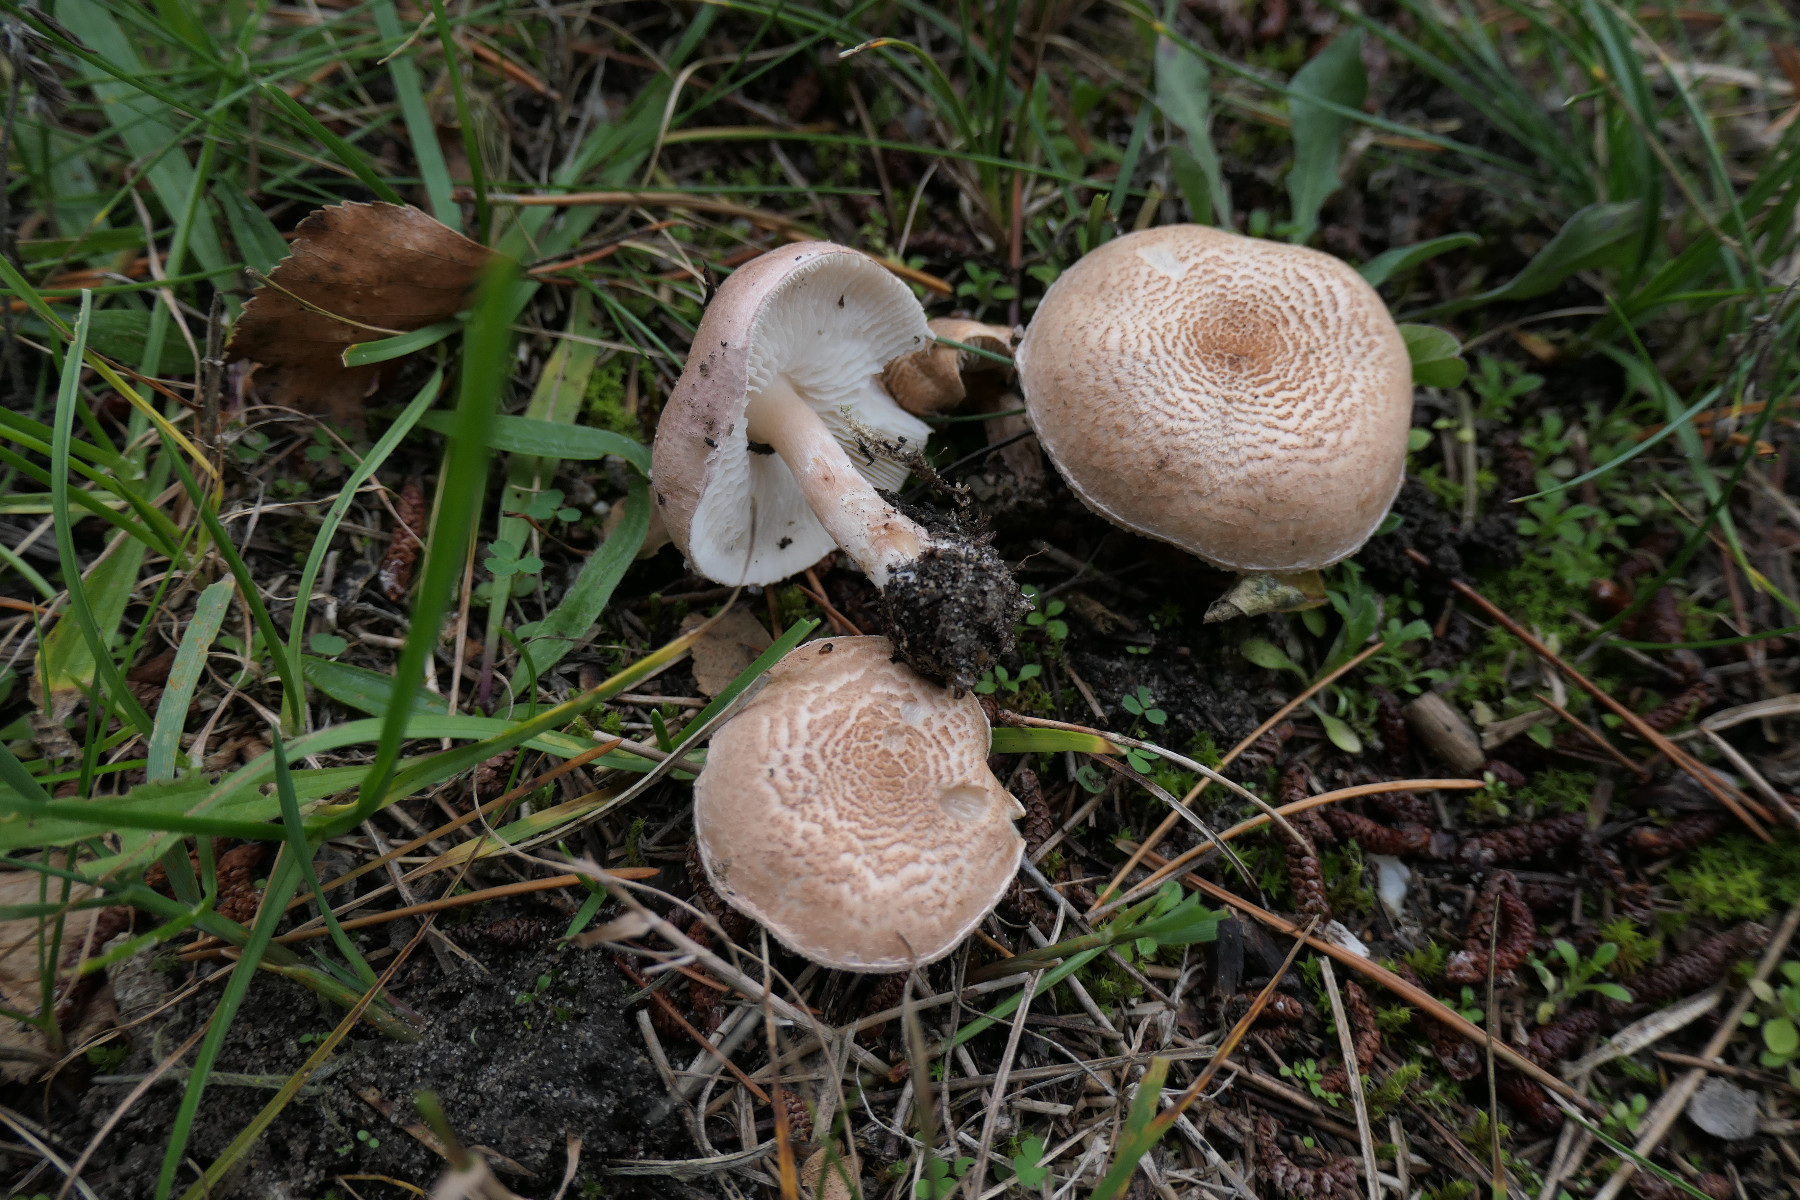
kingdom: Fungi
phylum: Basidiomycota
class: Agaricomycetes
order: Agaricales
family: Agaricaceae
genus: Lepiota
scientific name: Lepiota subincarnata
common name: kødfarvet parasolhat
